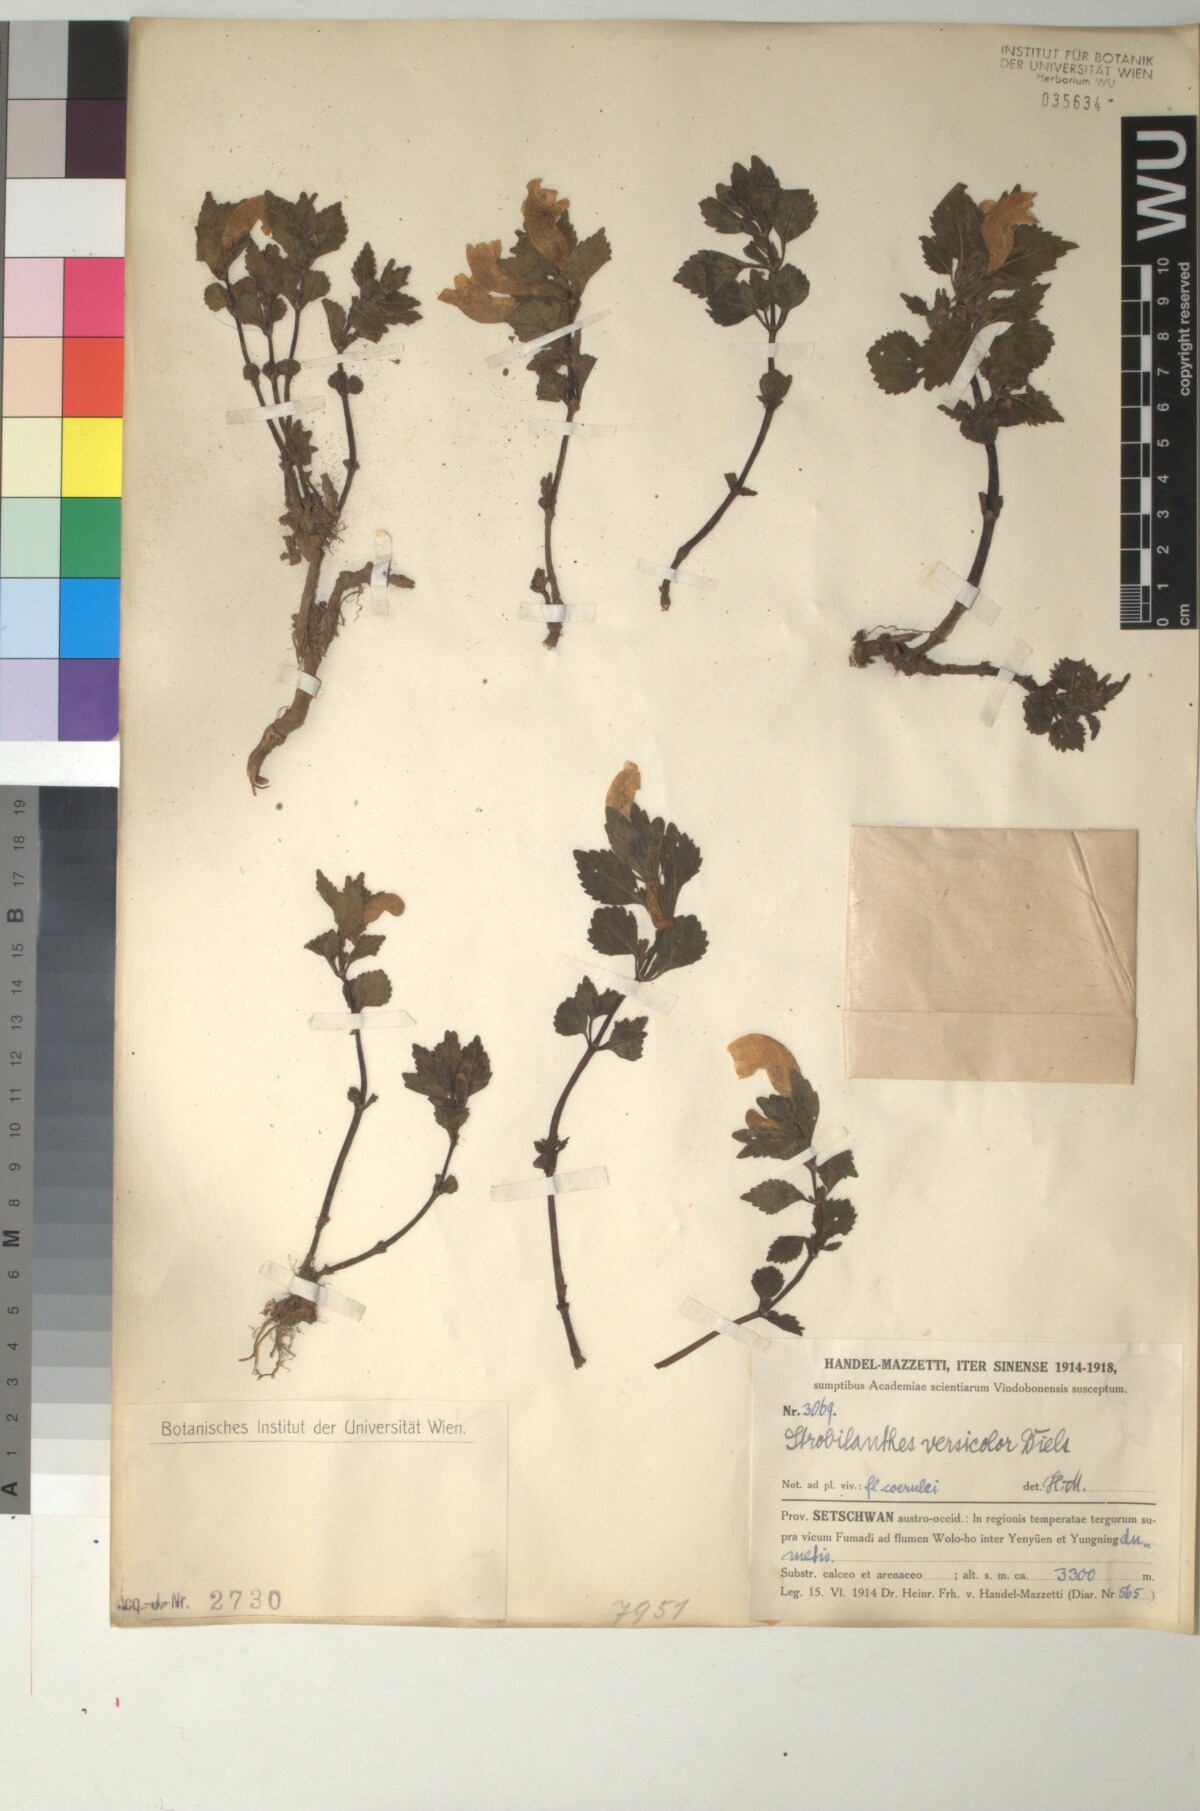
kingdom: Plantae
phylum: Tracheophyta
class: Magnoliopsida
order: Lamiales
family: Acanthaceae
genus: Strobilanthes
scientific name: Strobilanthes versicolor
